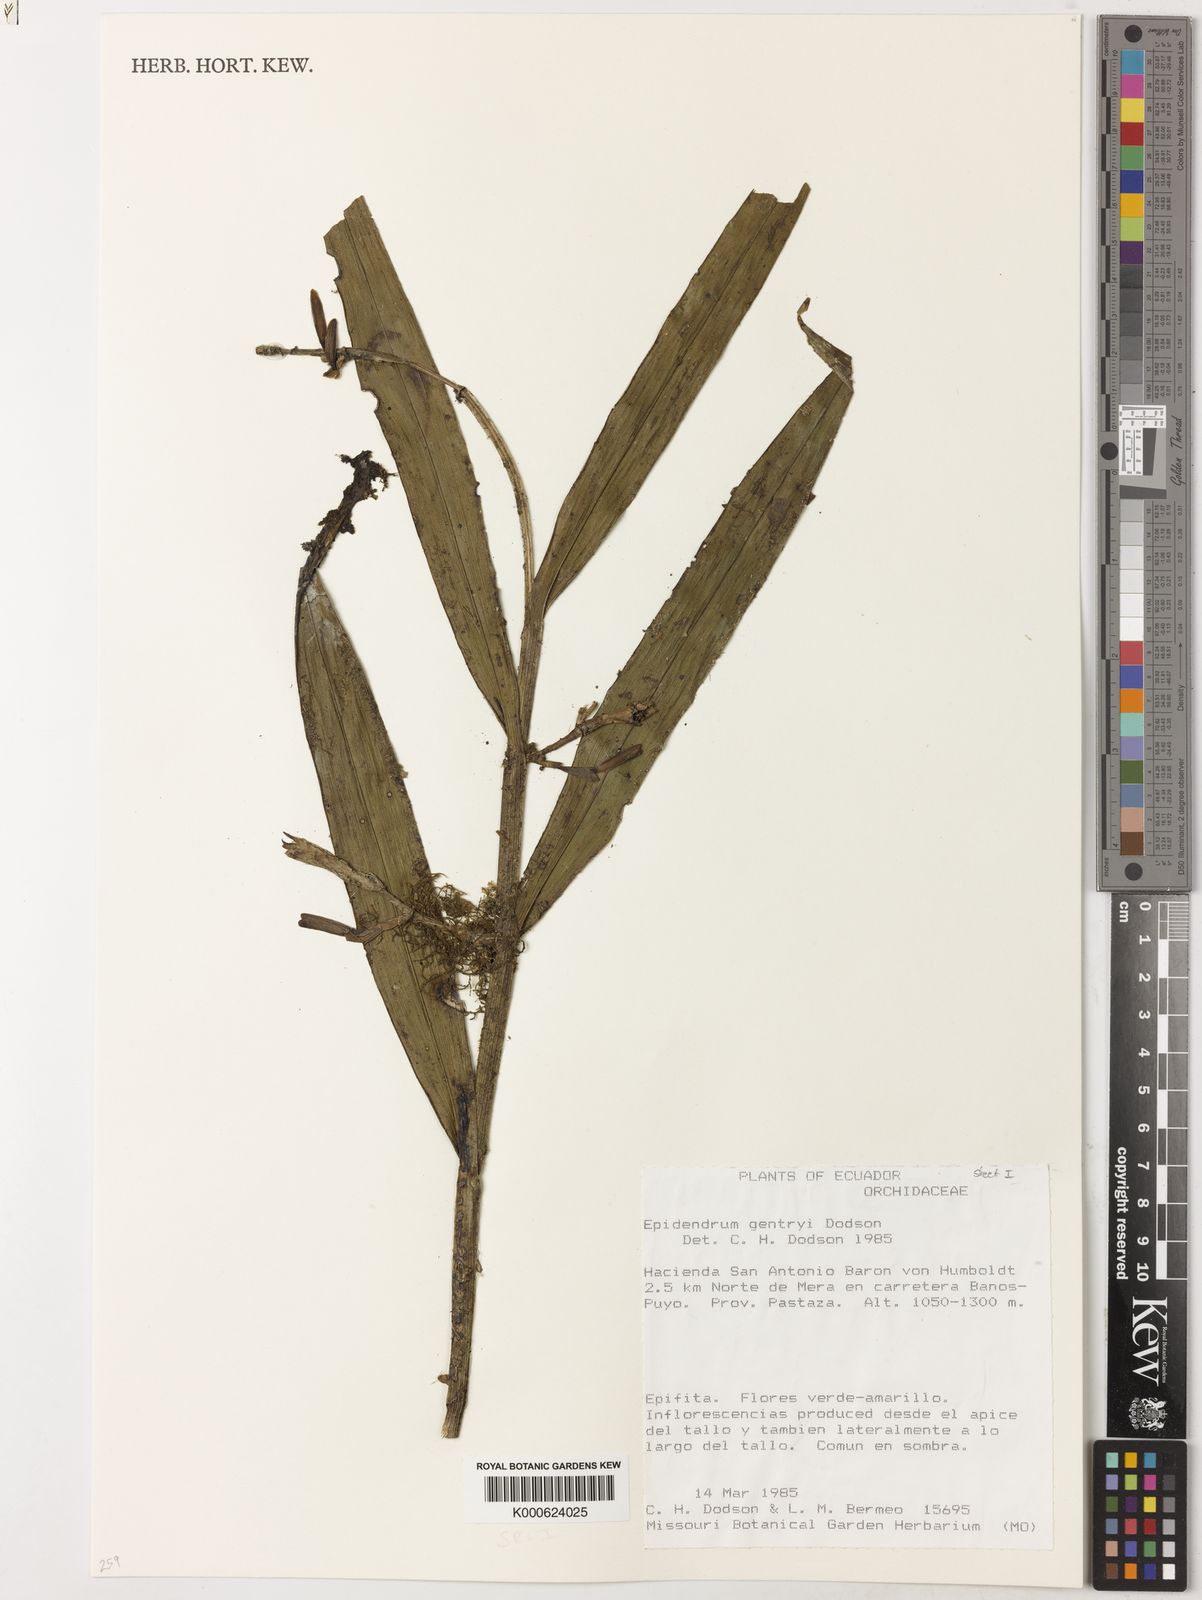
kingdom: Plantae
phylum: Tracheophyta
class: Liliopsida
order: Asparagales
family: Orchidaceae
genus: Epidendrum
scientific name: Epidendrum gentryi
